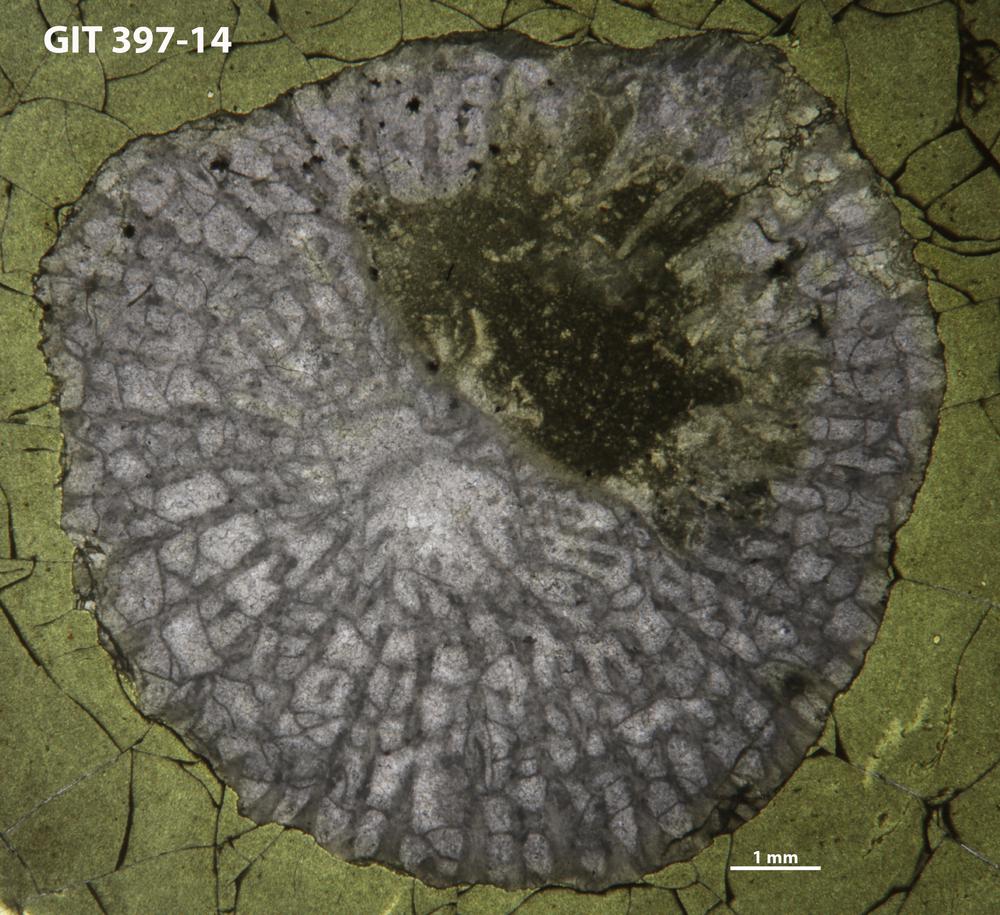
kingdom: Animalia
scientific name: Animalia
